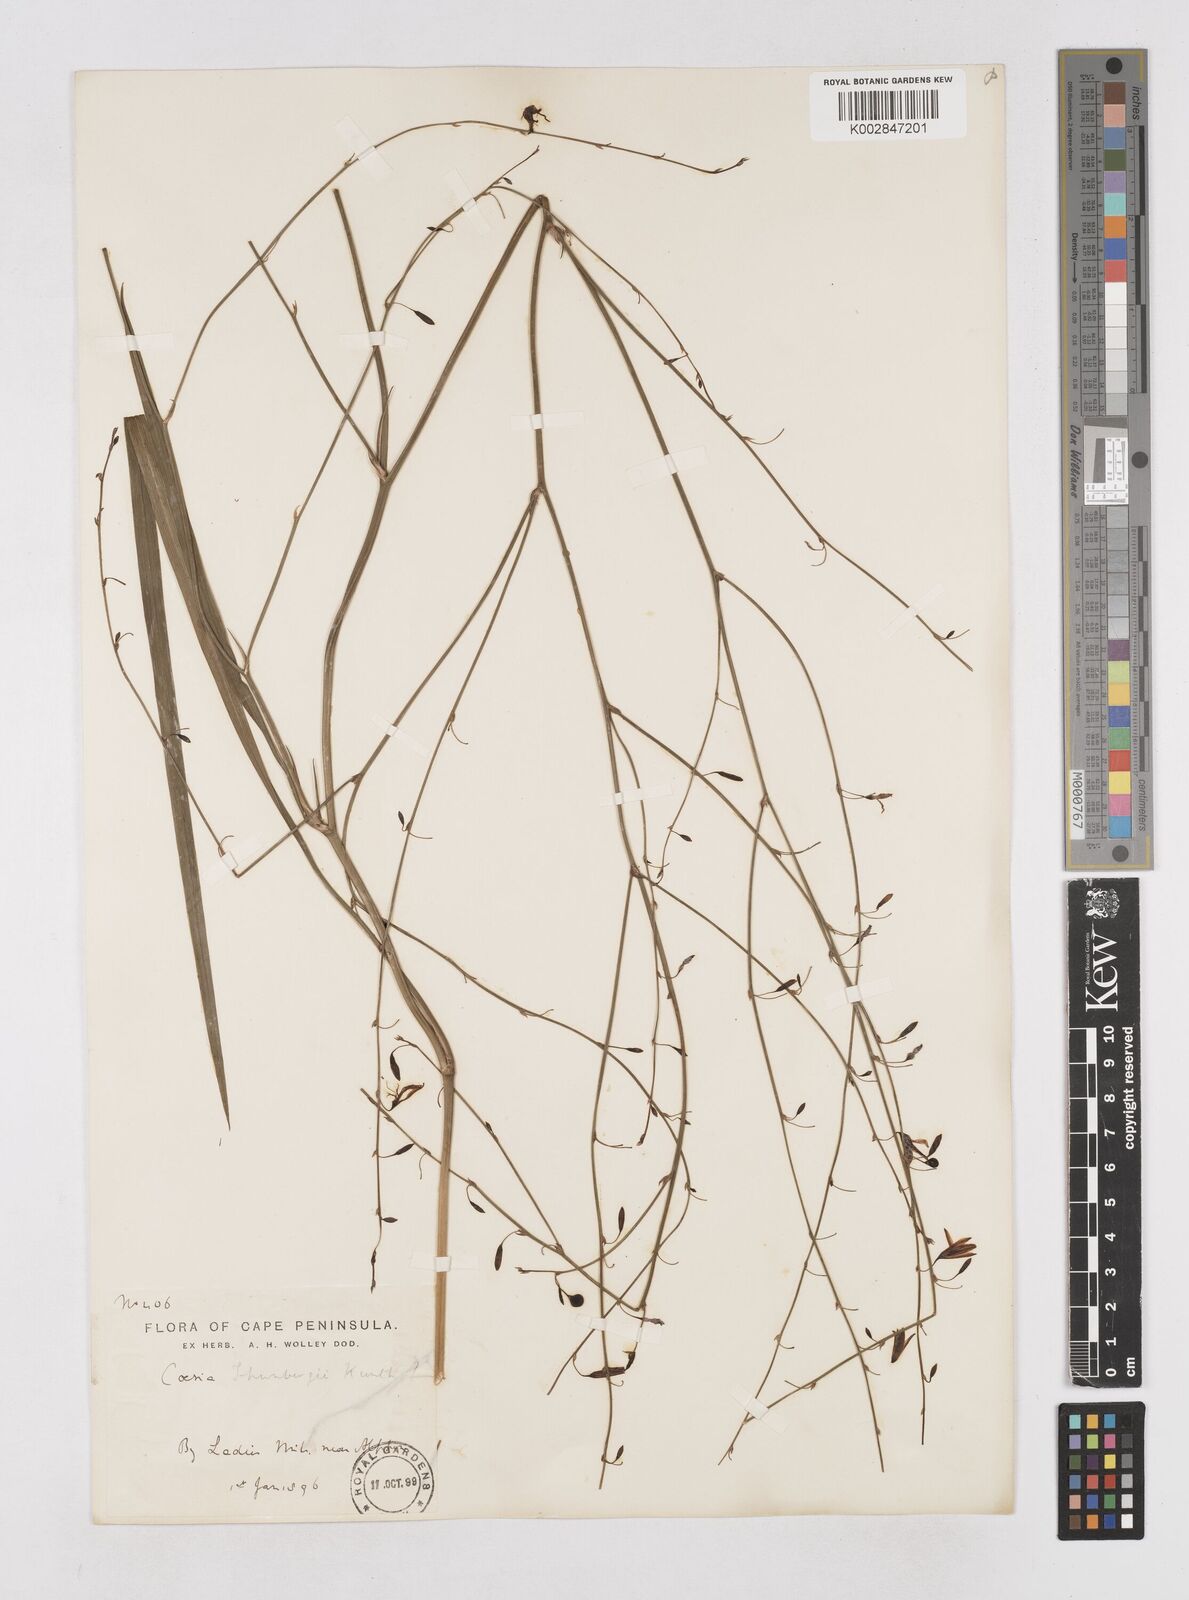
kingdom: Plantae
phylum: Tracheophyta
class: Liliopsida
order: Asparagales
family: Asphodelaceae
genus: Caesia
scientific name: Caesia contorta
